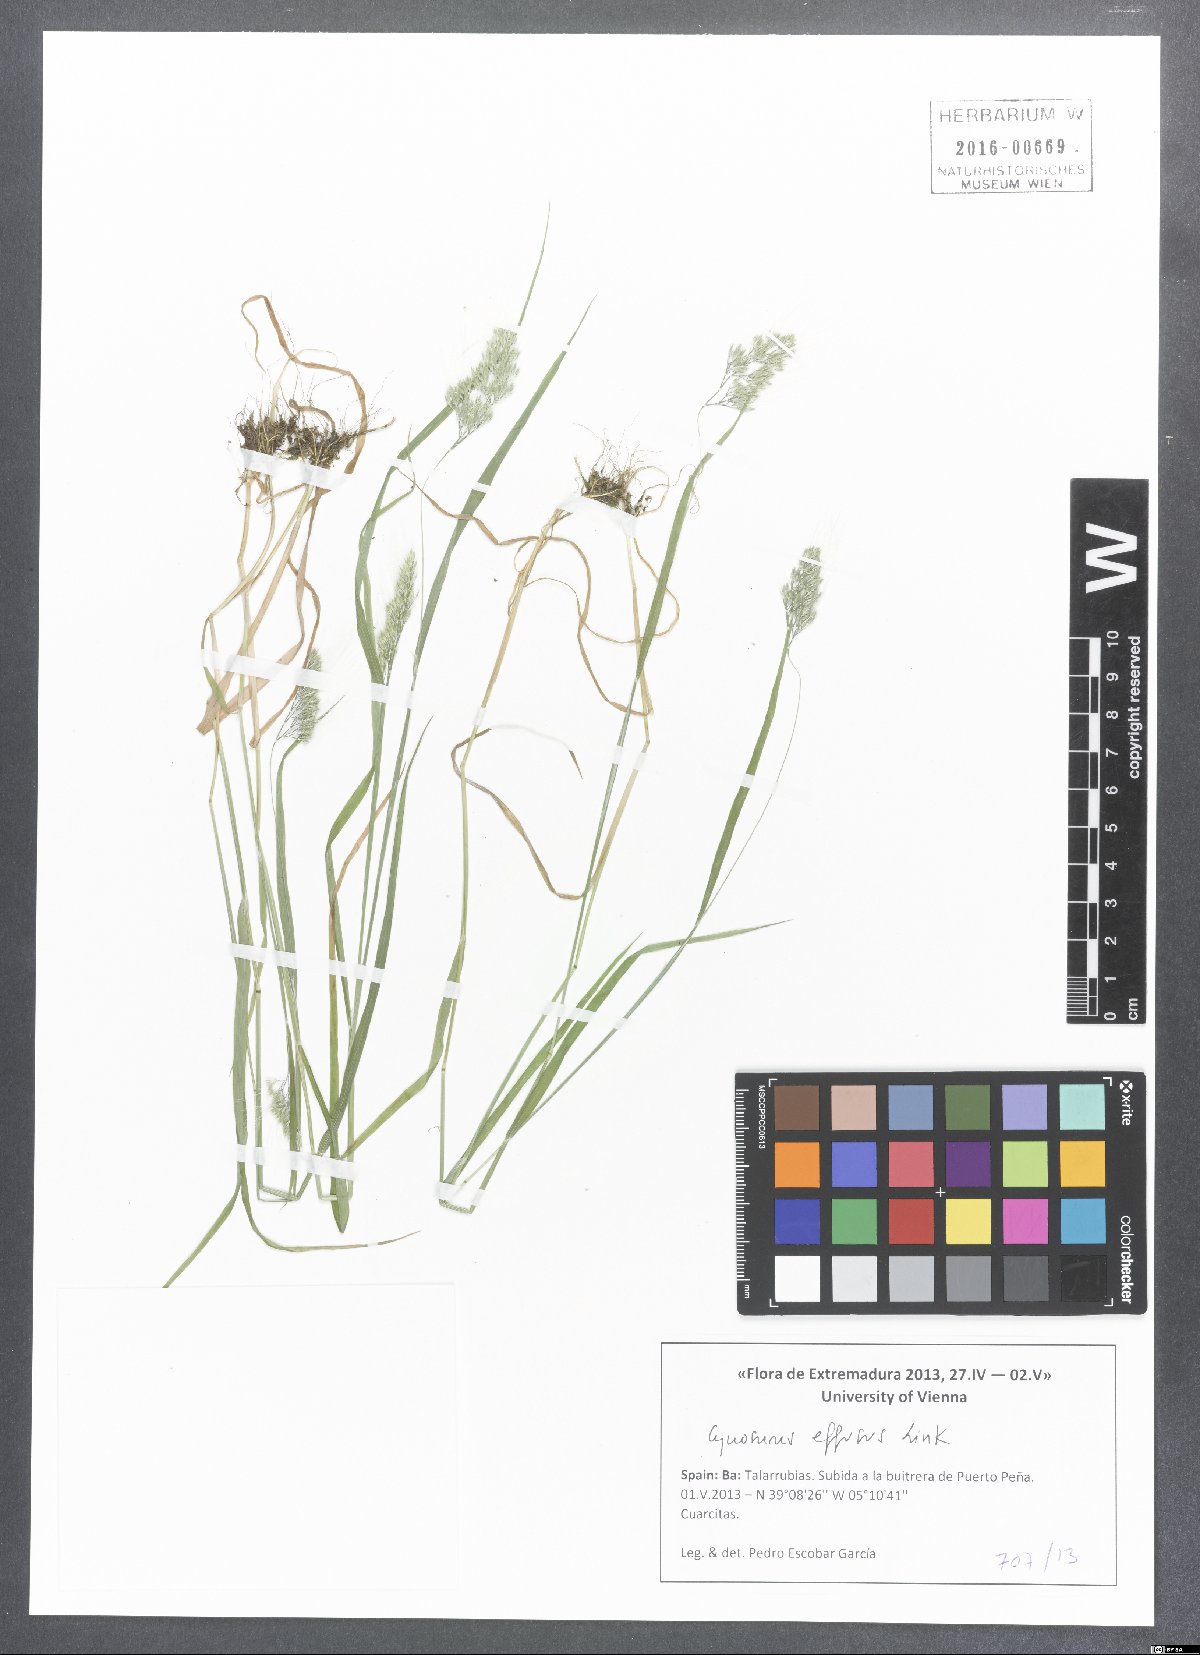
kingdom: Plantae
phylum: Tracheophyta
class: Liliopsida
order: Poales
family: Poaceae
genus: Cynosurus
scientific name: Cynosurus effusus
